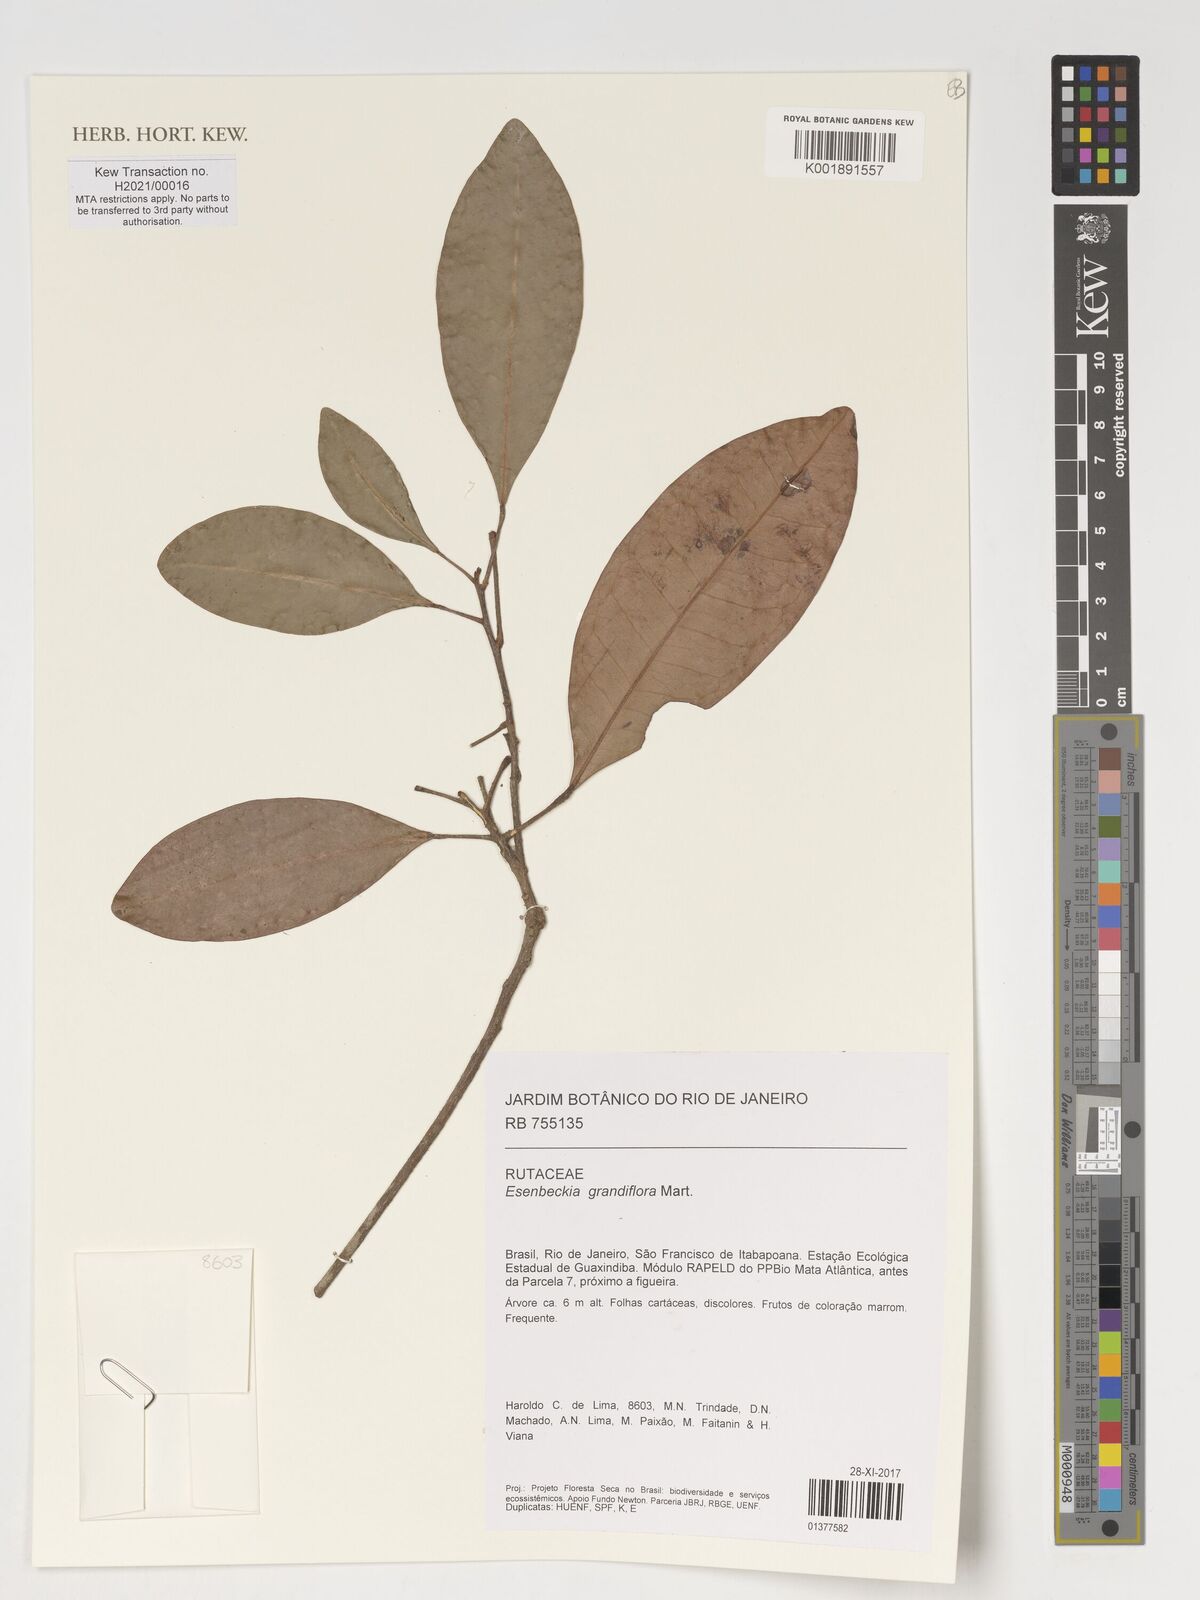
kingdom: Plantae
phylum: Tracheophyta
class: Magnoliopsida
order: Sapindales
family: Rutaceae
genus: Esenbeckia
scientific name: Esenbeckia grandiflora
